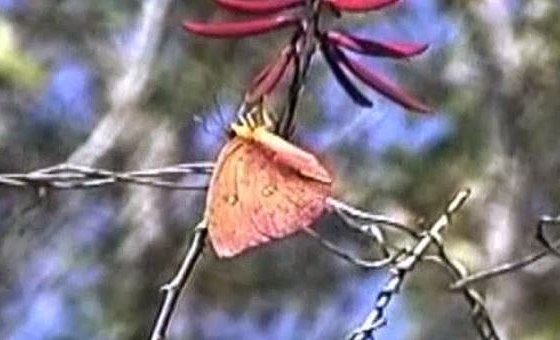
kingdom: Animalia
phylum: Arthropoda
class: Insecta
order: Lepidoptera
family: Pieridae
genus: Phoebis
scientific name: Phoebis philea
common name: Orange-barred Sulphur
